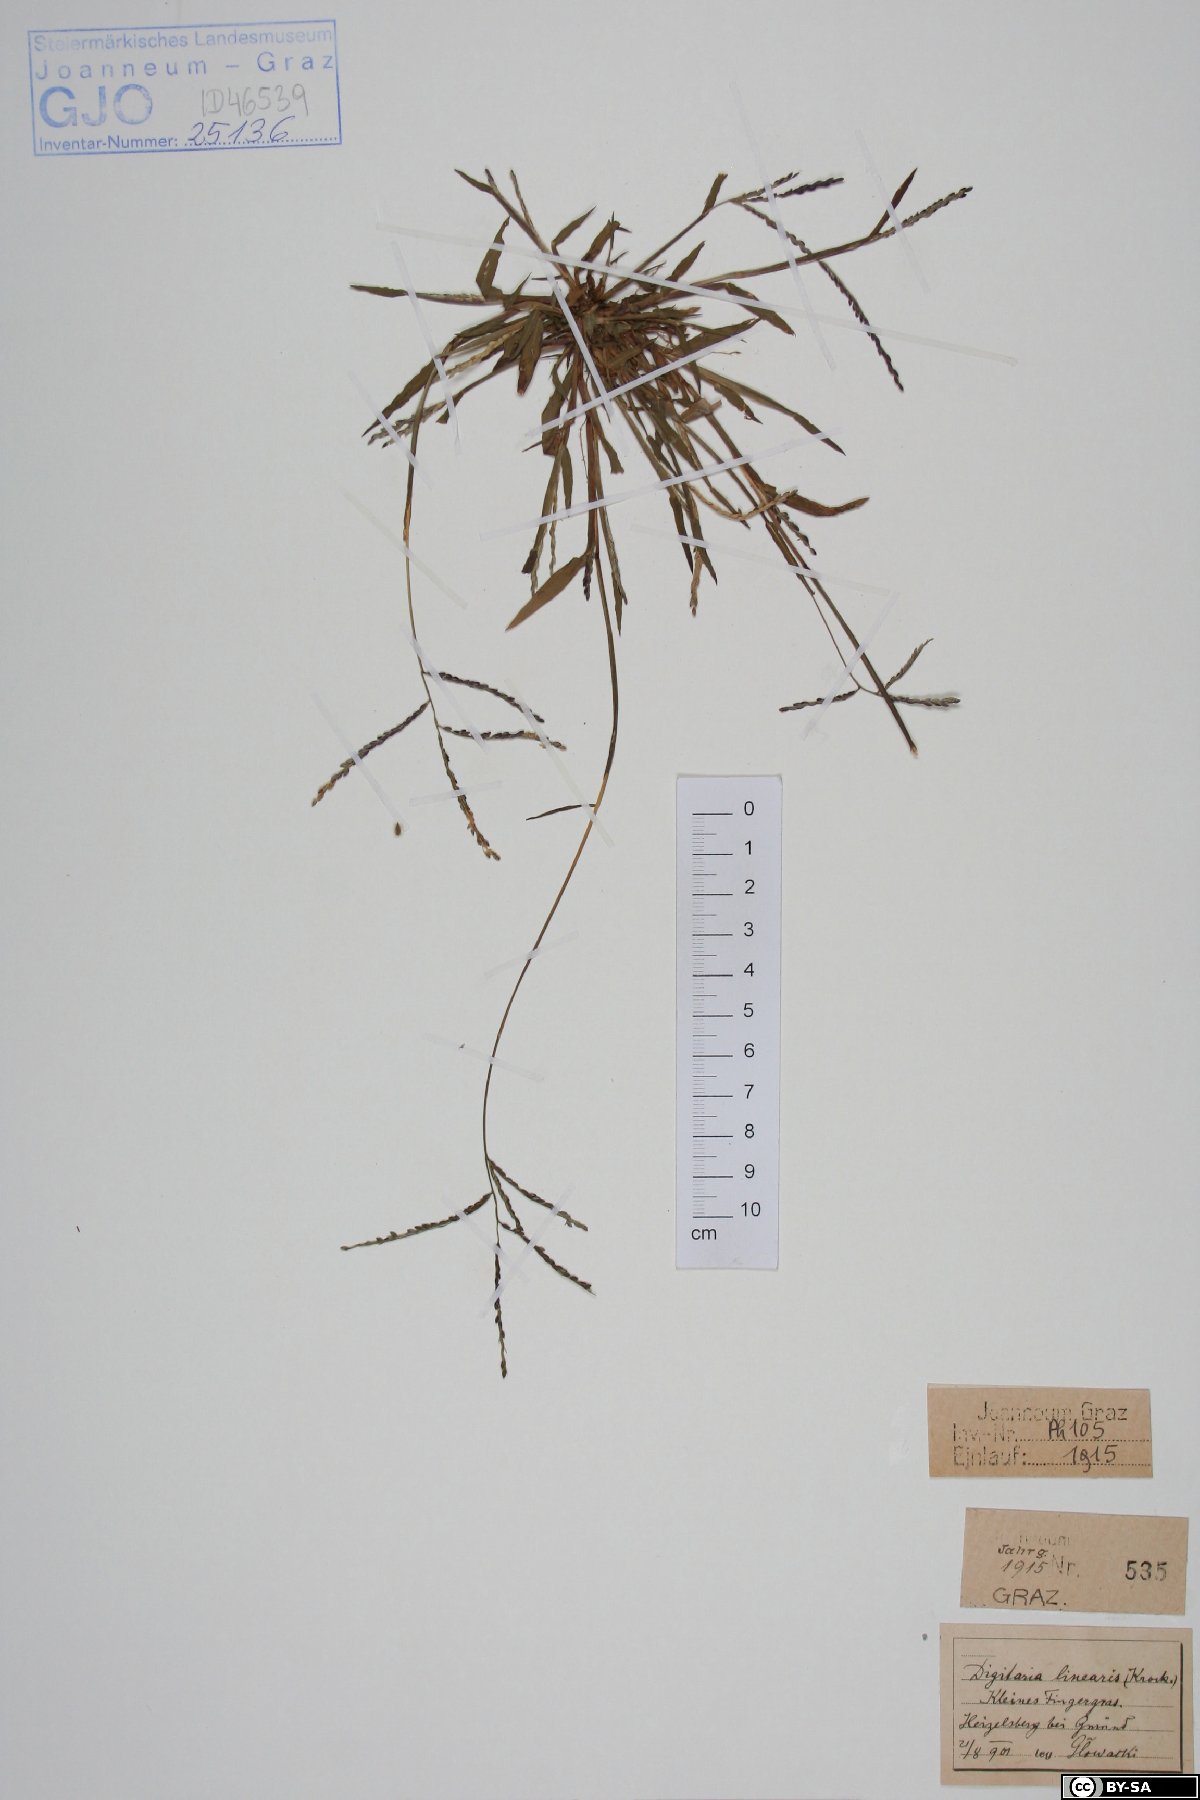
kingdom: Plantae
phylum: Tracheophyta
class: Liliopsida
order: Poales
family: Poaceae
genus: Digitaria
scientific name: Digitaria ischaemum
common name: Smooth crabgrass
